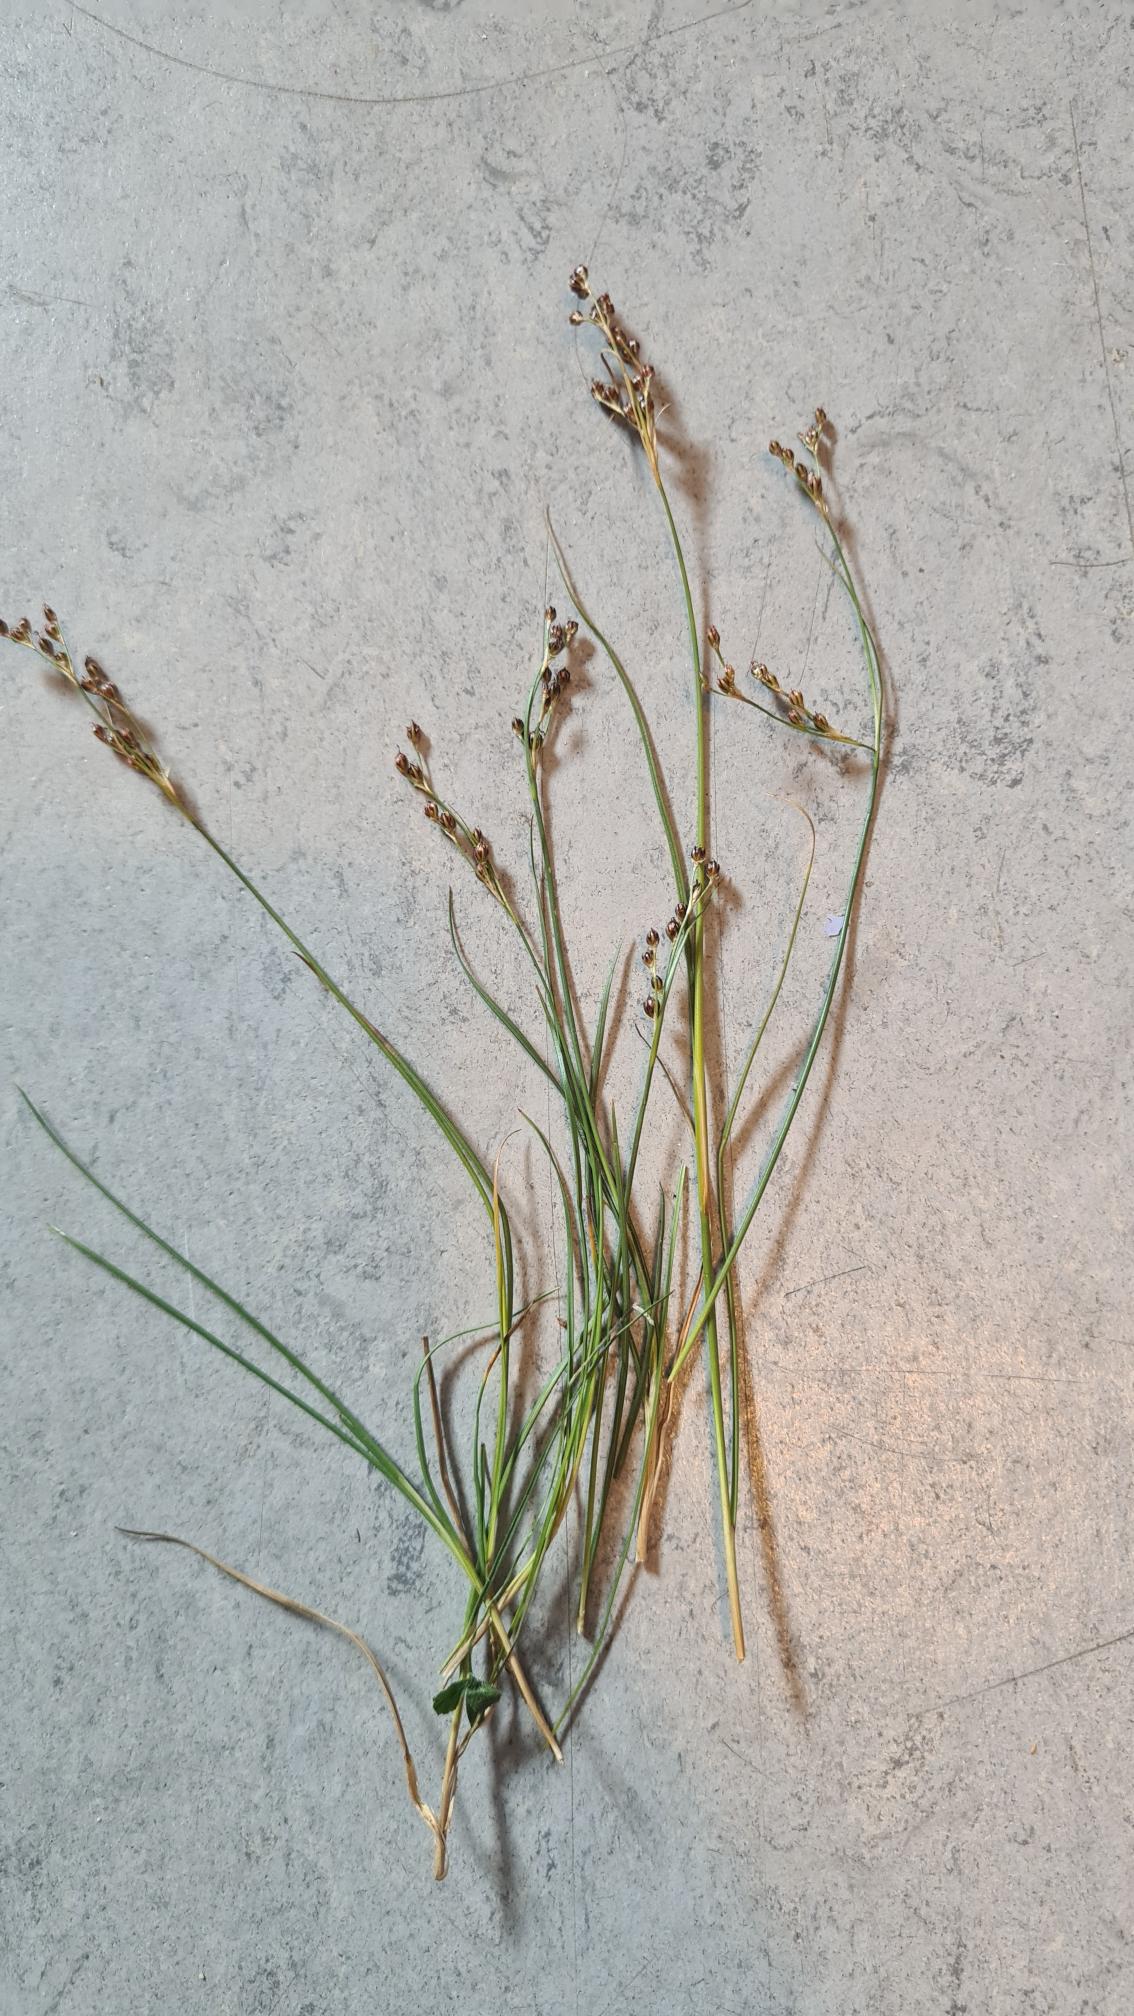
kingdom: Plantae
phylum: Tracheophyta
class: Liliopsida
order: Poales
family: Juncaceae
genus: Juncus
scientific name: Juncus gerardi
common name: Harril
